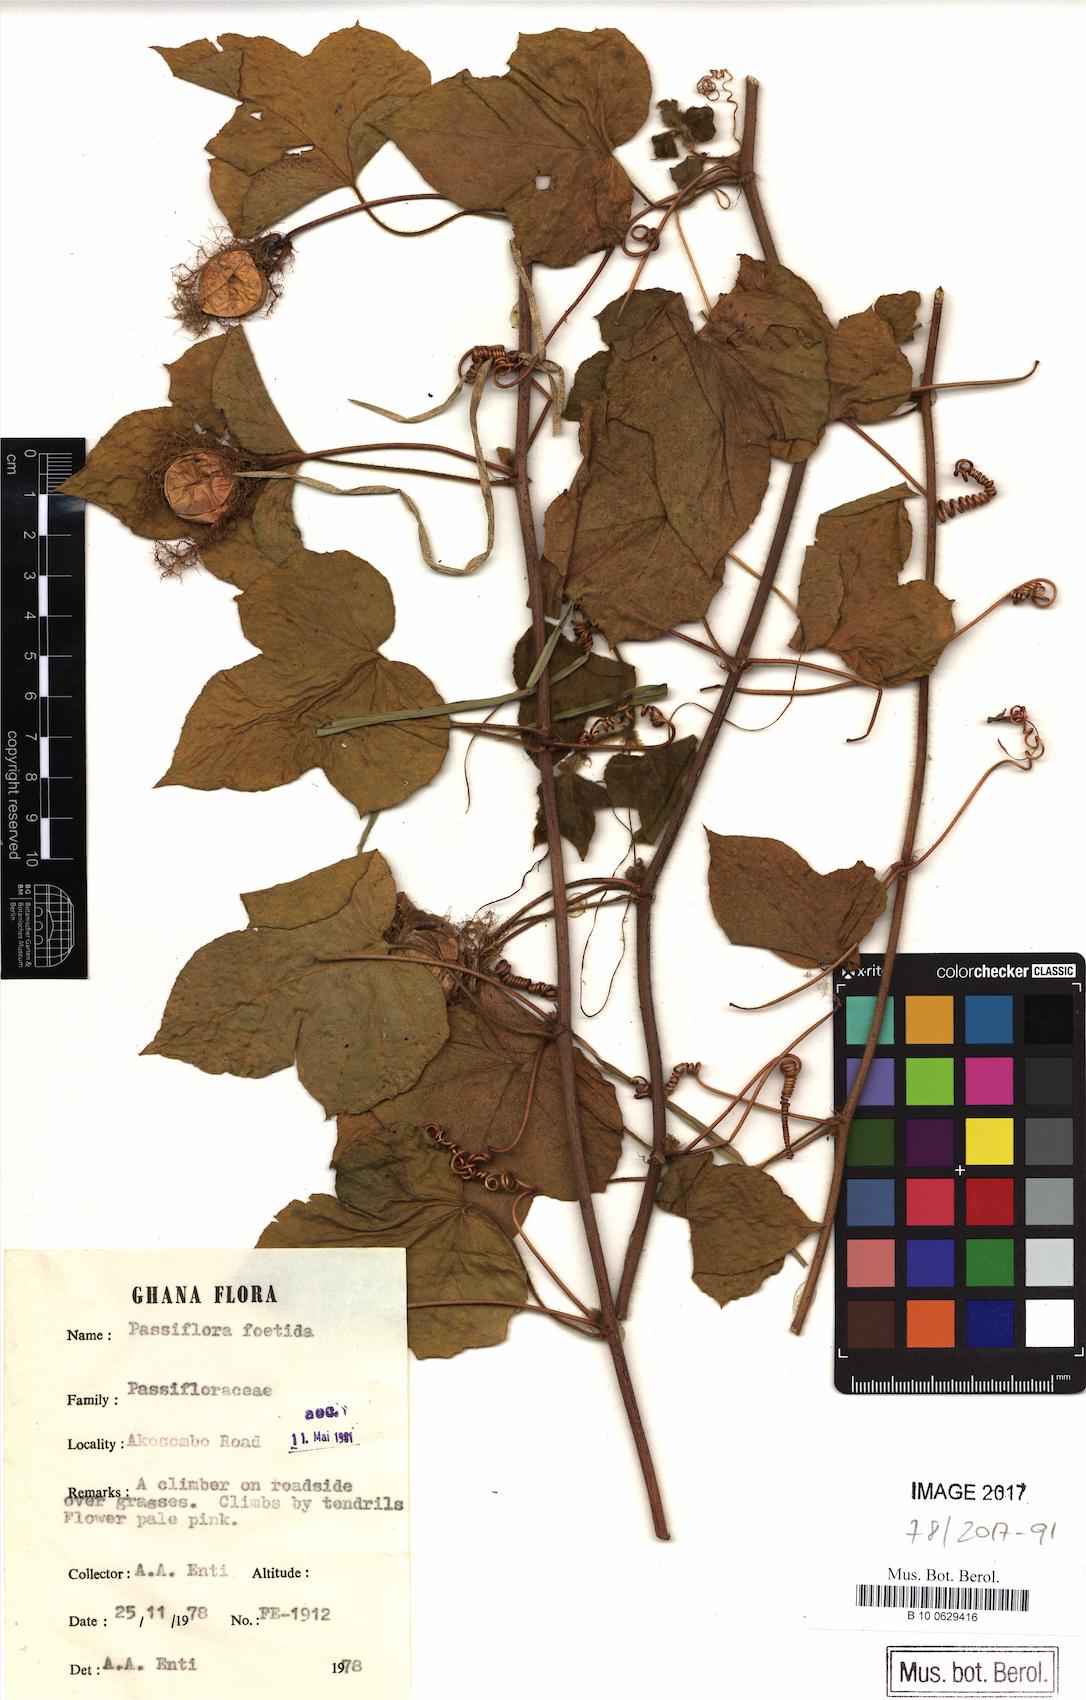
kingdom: Plantae
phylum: Tracheophyta
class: Magnoliopsida
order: Malpighiales
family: Passifloraceae
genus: Passiflora
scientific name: Passiflora foetida
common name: Fetid passionflower
